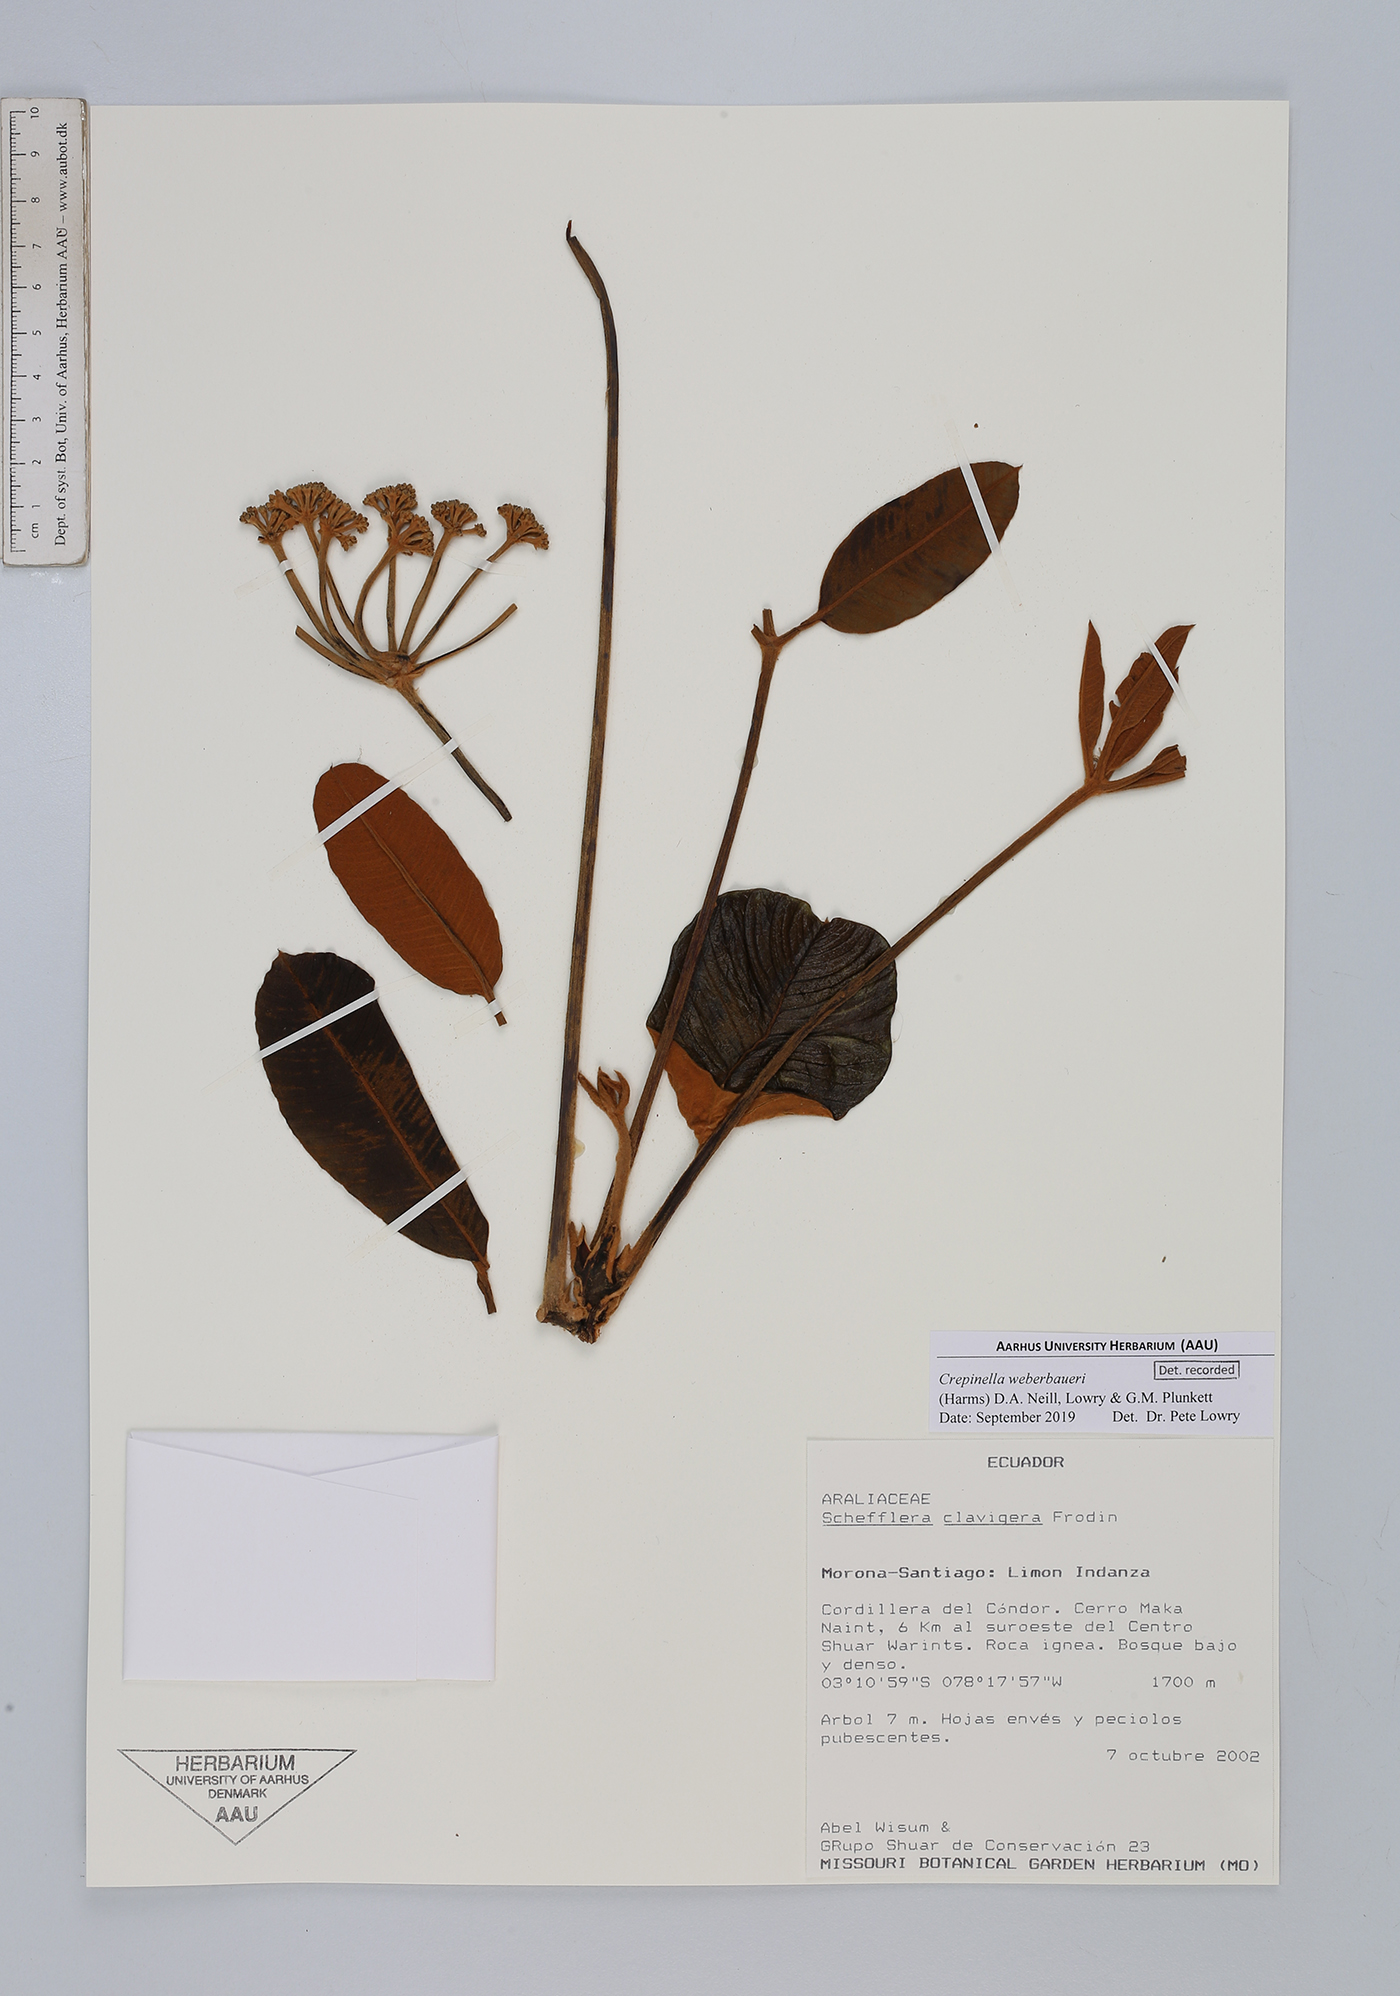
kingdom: Plantae
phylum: Tracheophyta
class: Magnoliopsida
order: Apiales
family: Araliaceae
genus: Crepinella
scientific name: Crepinella weberbaueri
